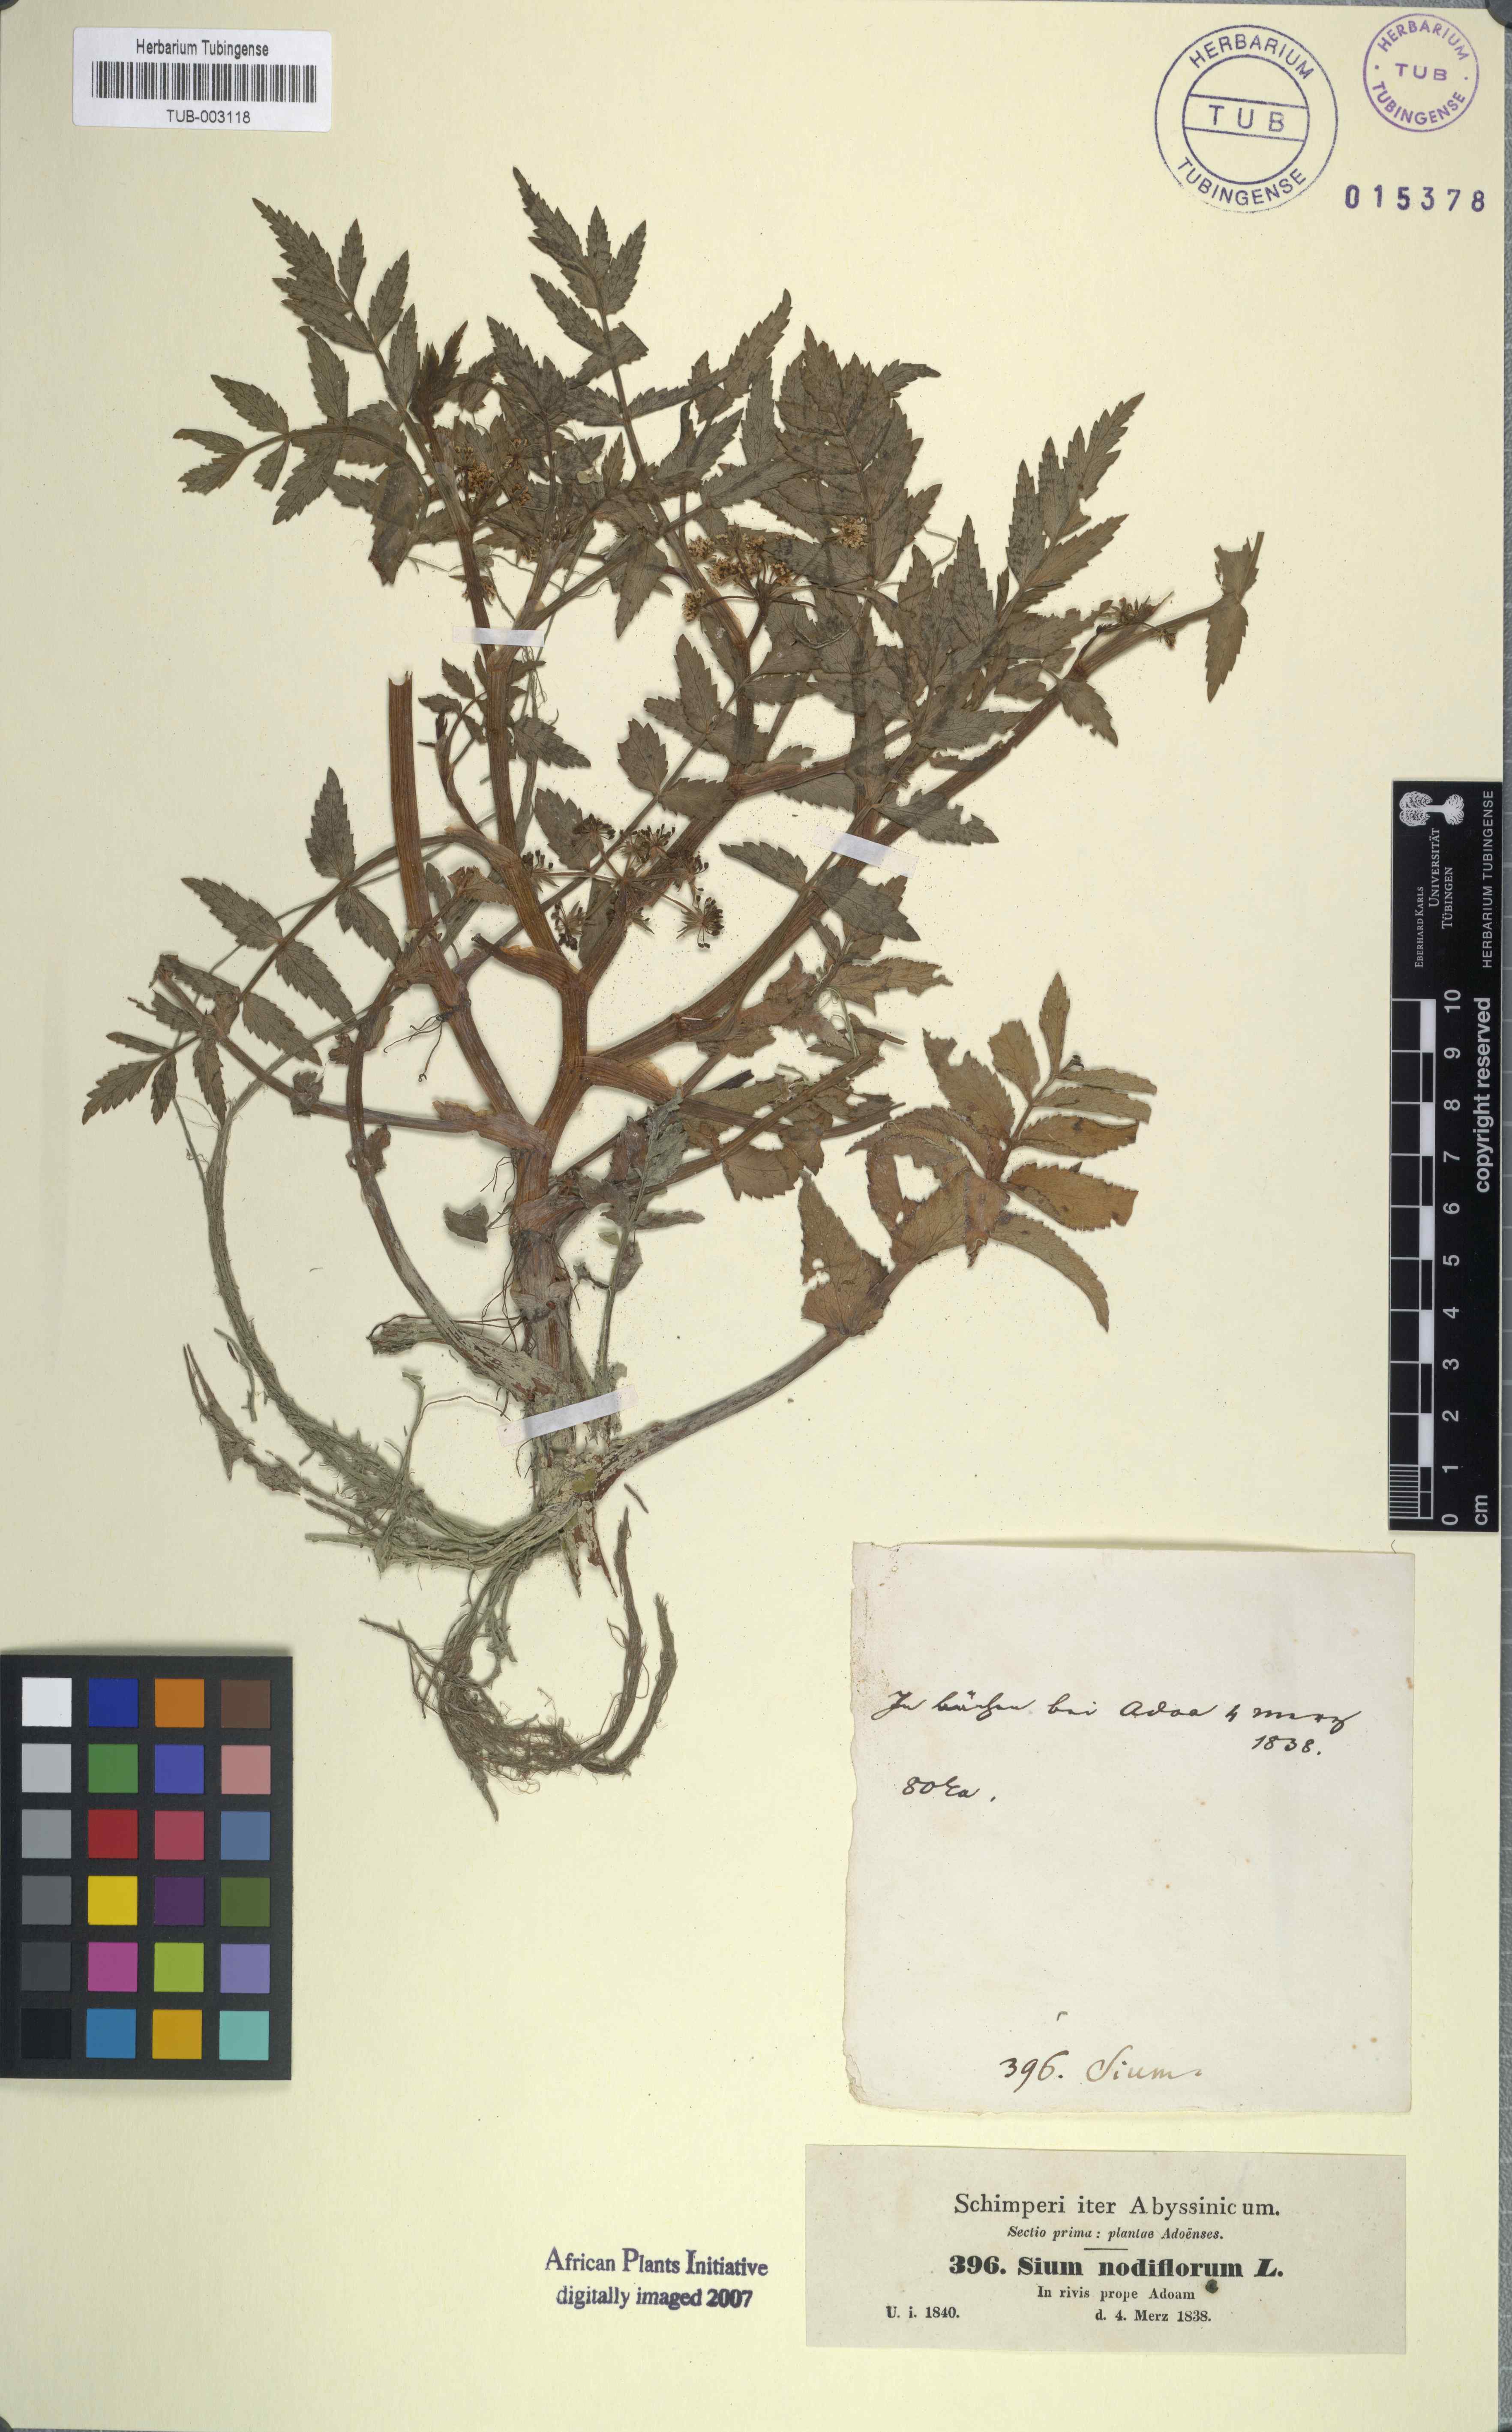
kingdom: Plantae
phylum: Tracheophyta
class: Magnoliopsida
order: Apiales
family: Apiaceae
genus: Helosciadium
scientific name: Helosciadium nodiflorum
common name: Fool's-watercress
